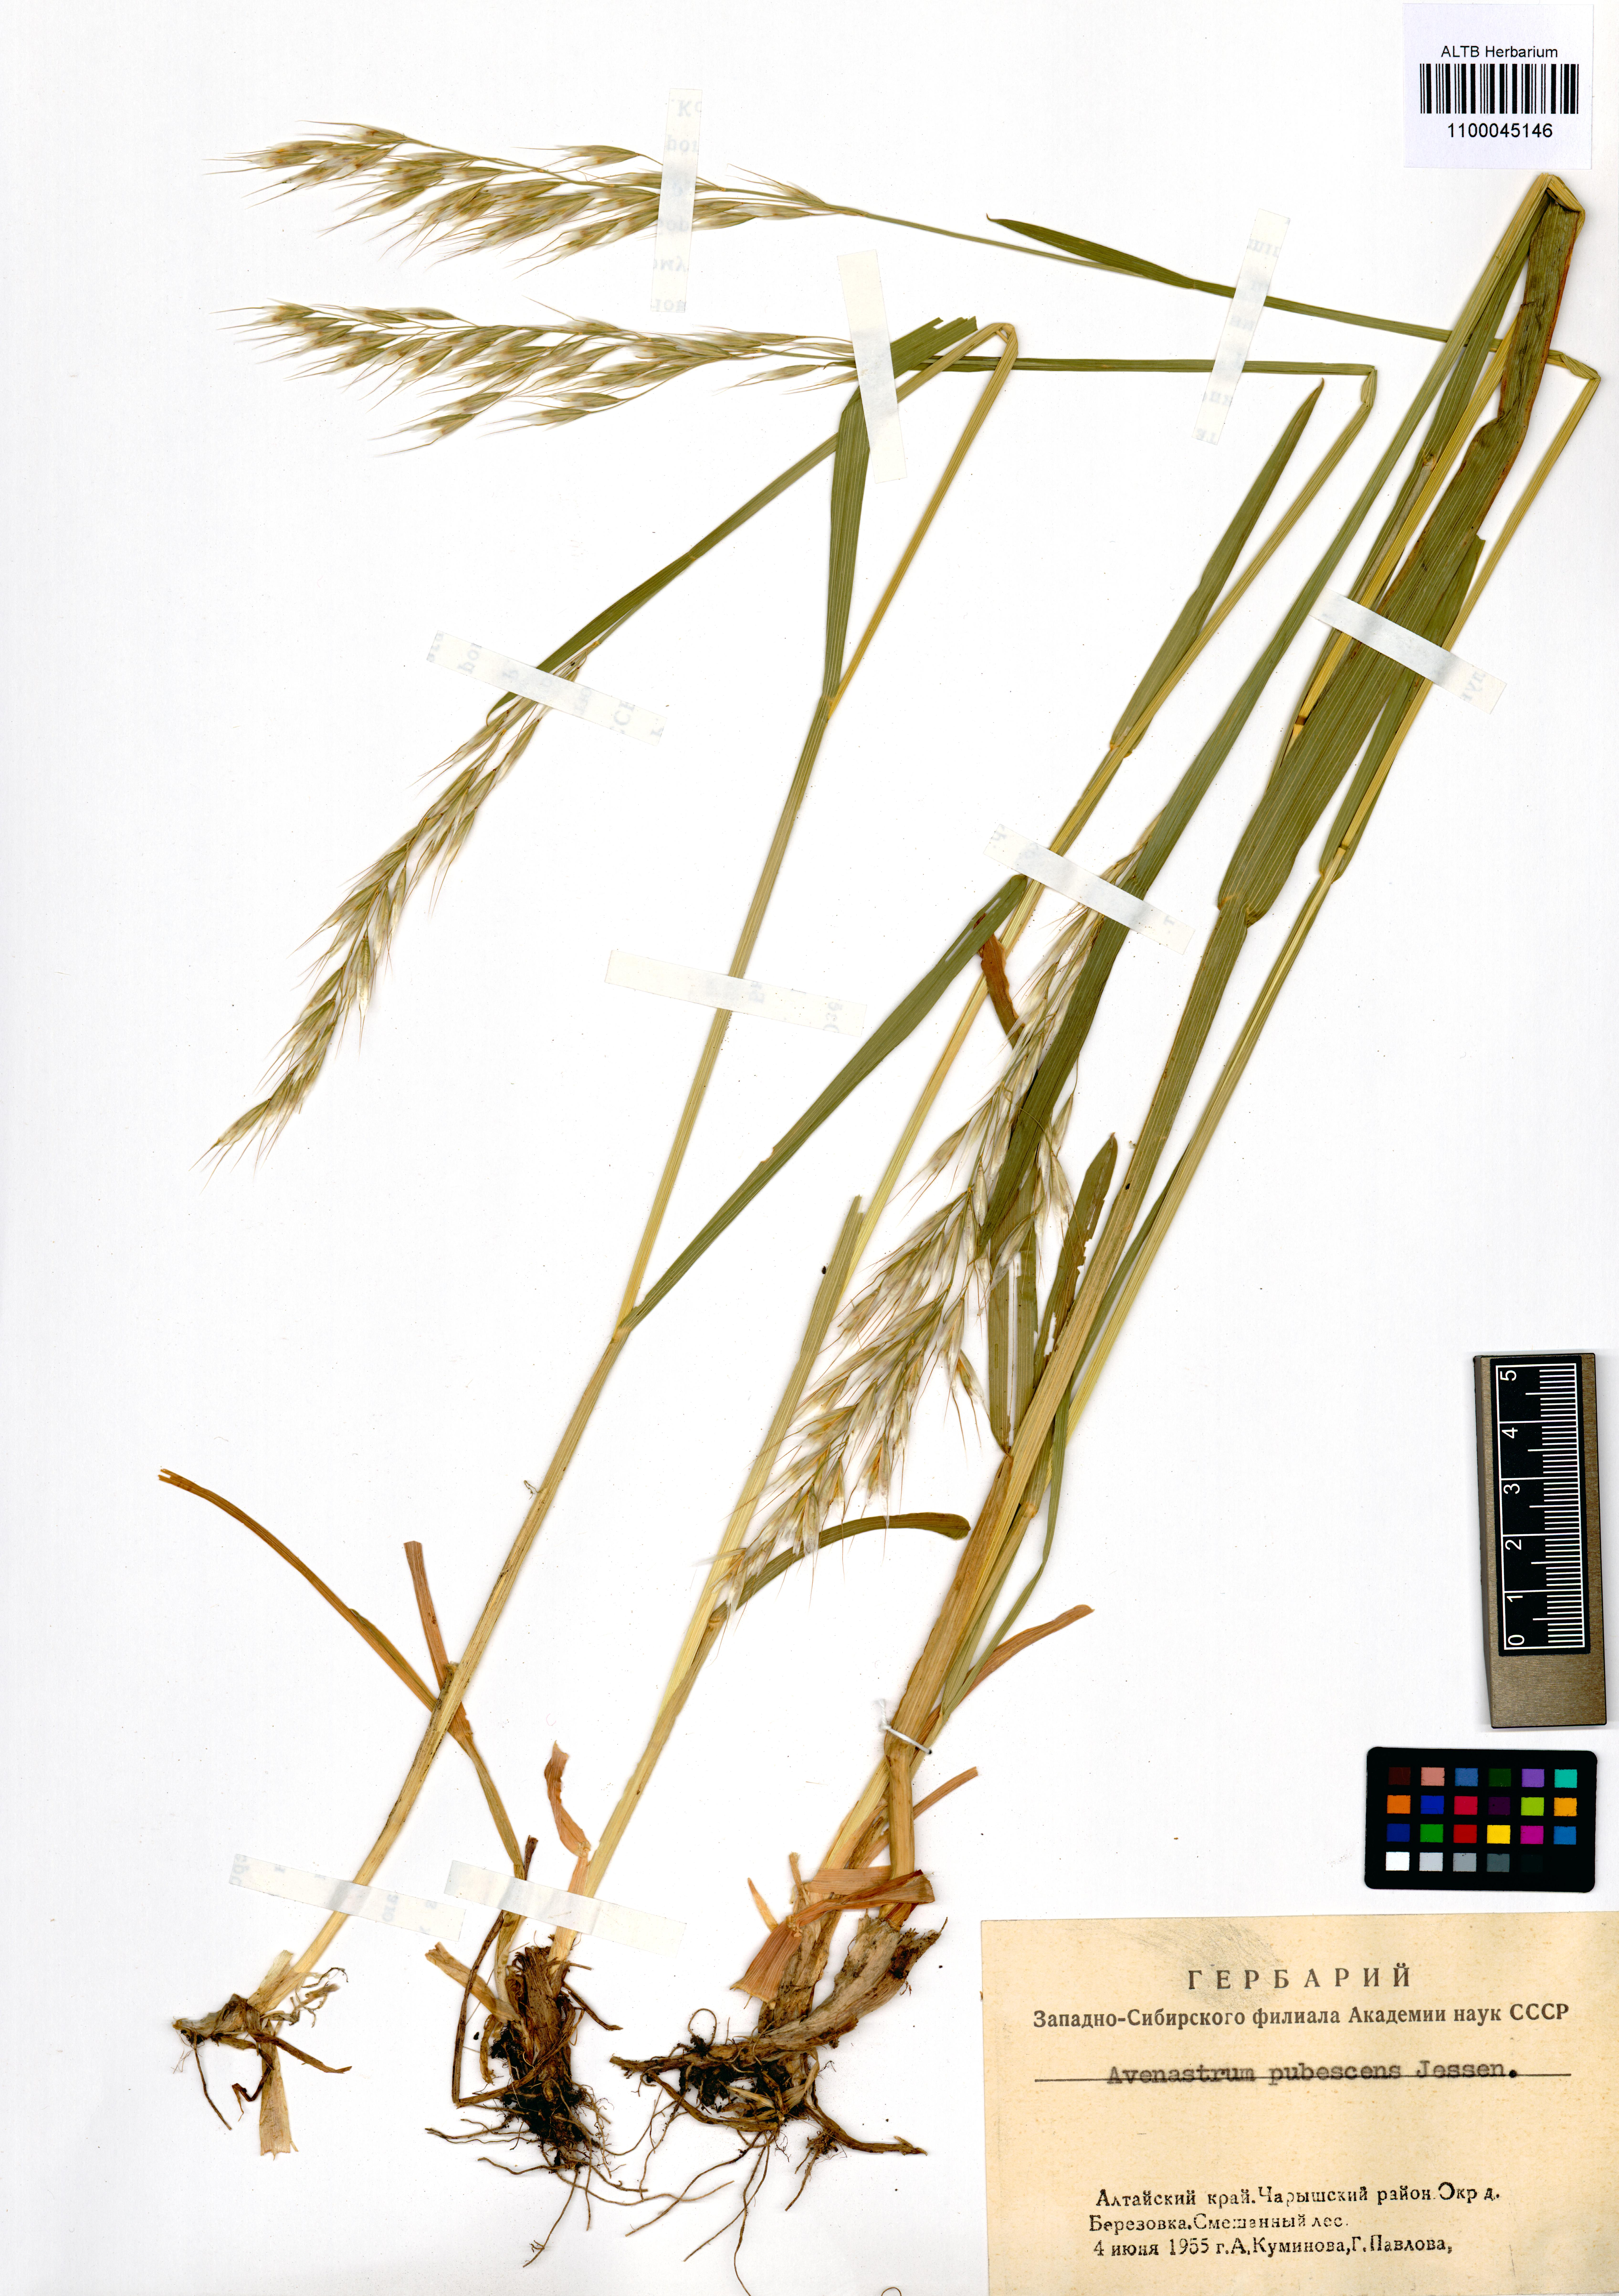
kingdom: Plantae
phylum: Tracheophyta
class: Liliopsida
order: Poales
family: Poaceae
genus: Avenula
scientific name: Avenula pubescens
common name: Downy alpine oatgrass
